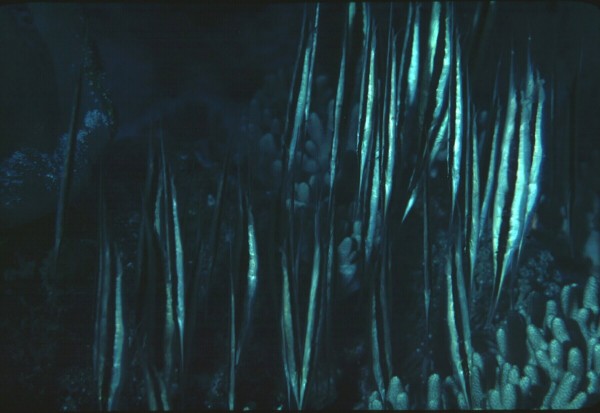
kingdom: Animalia
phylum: Chordata
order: Syngnathiformes
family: Centriscidae
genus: Aeoliscus
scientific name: Aeoliscus
